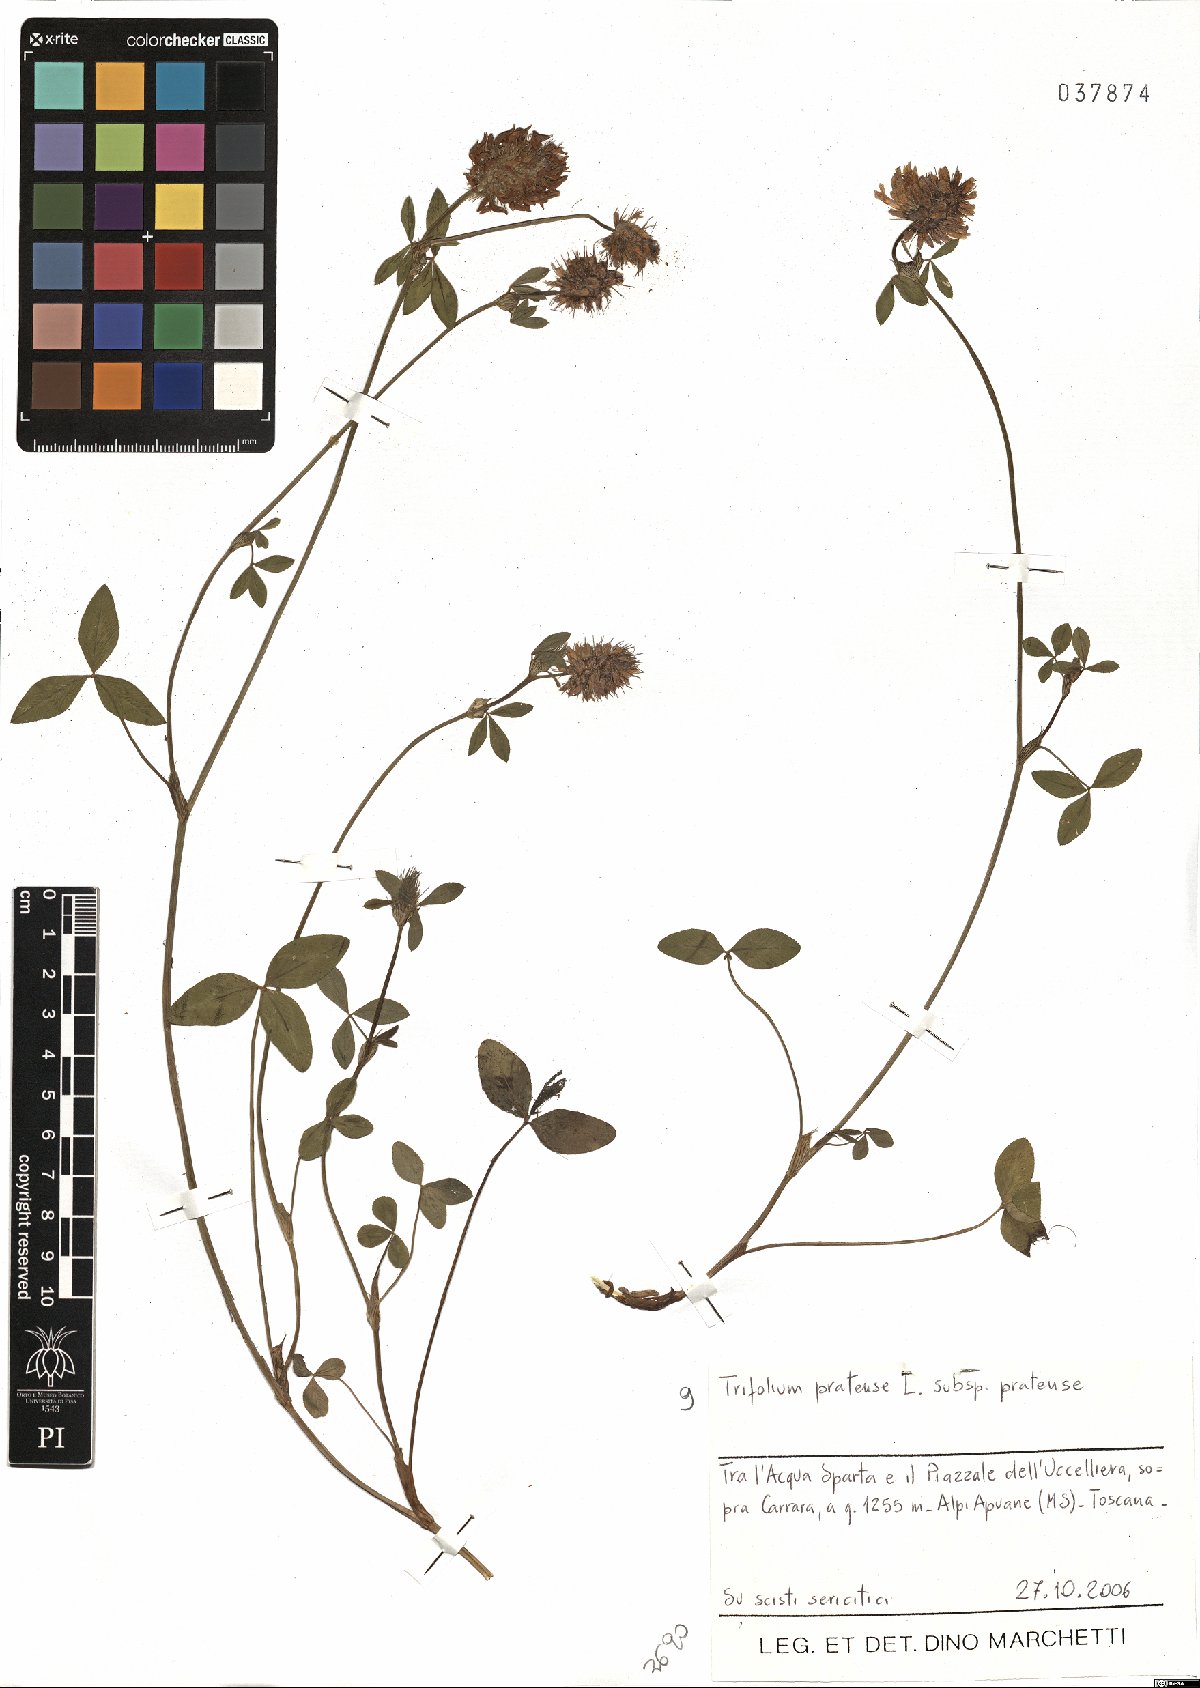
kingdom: Plantae
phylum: Tracheophyta
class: Magnoliopsida
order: Fabales
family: Fabaceae
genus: Trifolium
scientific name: Trifolium pratense
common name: Red clover
